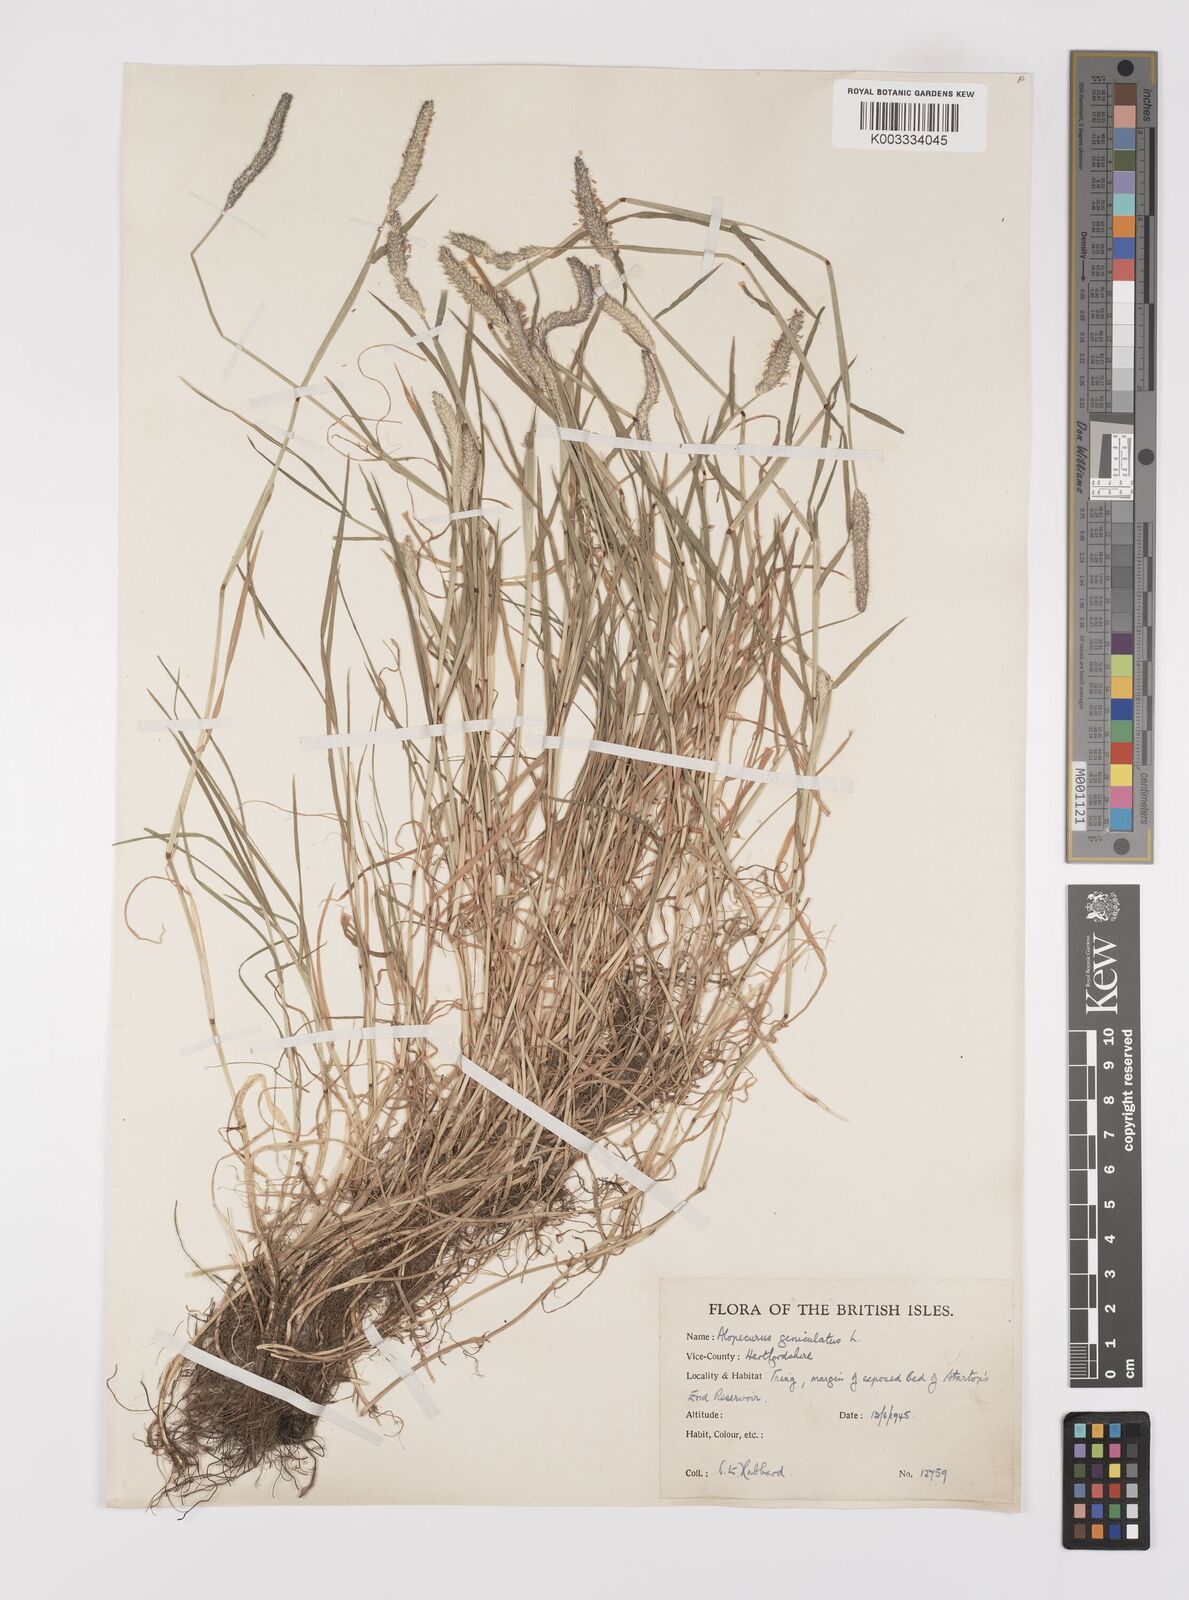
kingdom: Plantae
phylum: Tracheophyta
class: Liliopsida
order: Poales
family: Poaceae
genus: Alopecurus
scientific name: Alopecurus geniculatus
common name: Water foxtail
